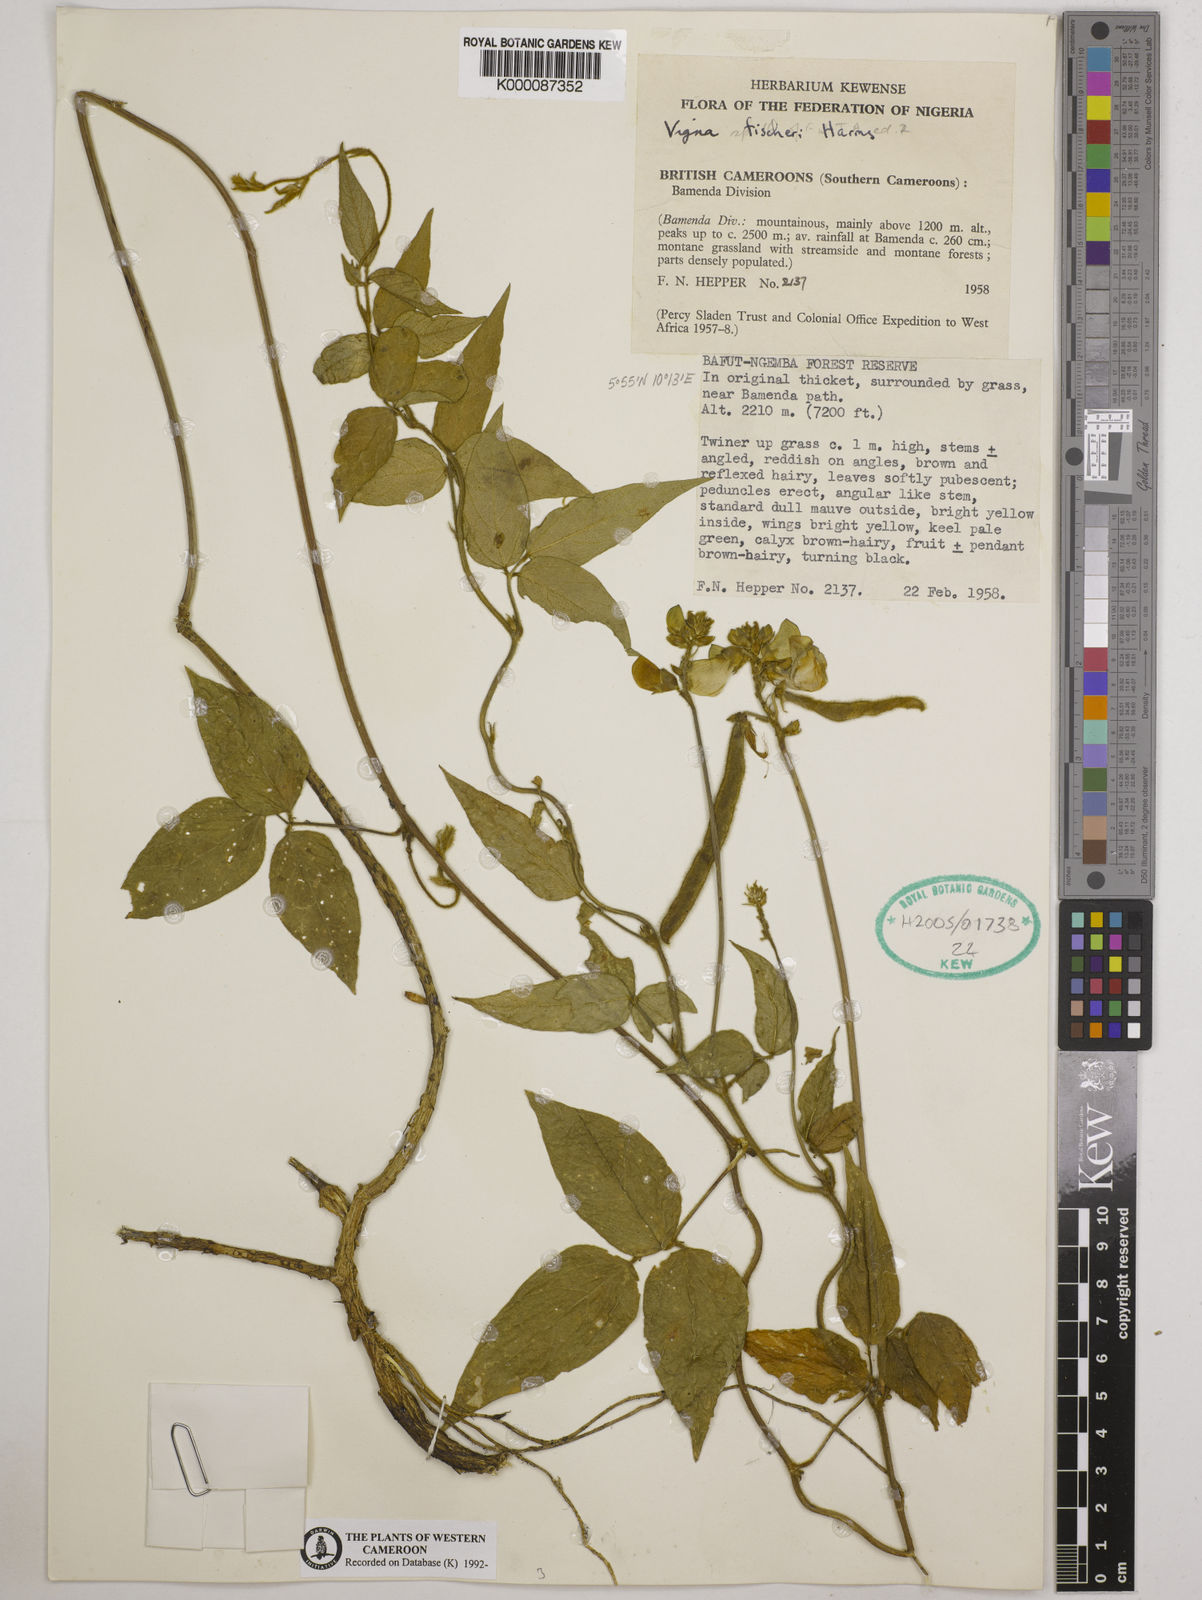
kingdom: Plantae
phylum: Tracheophyta
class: Magnoliopsida
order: Fabales
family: Fabaceae
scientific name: Fabaceae
